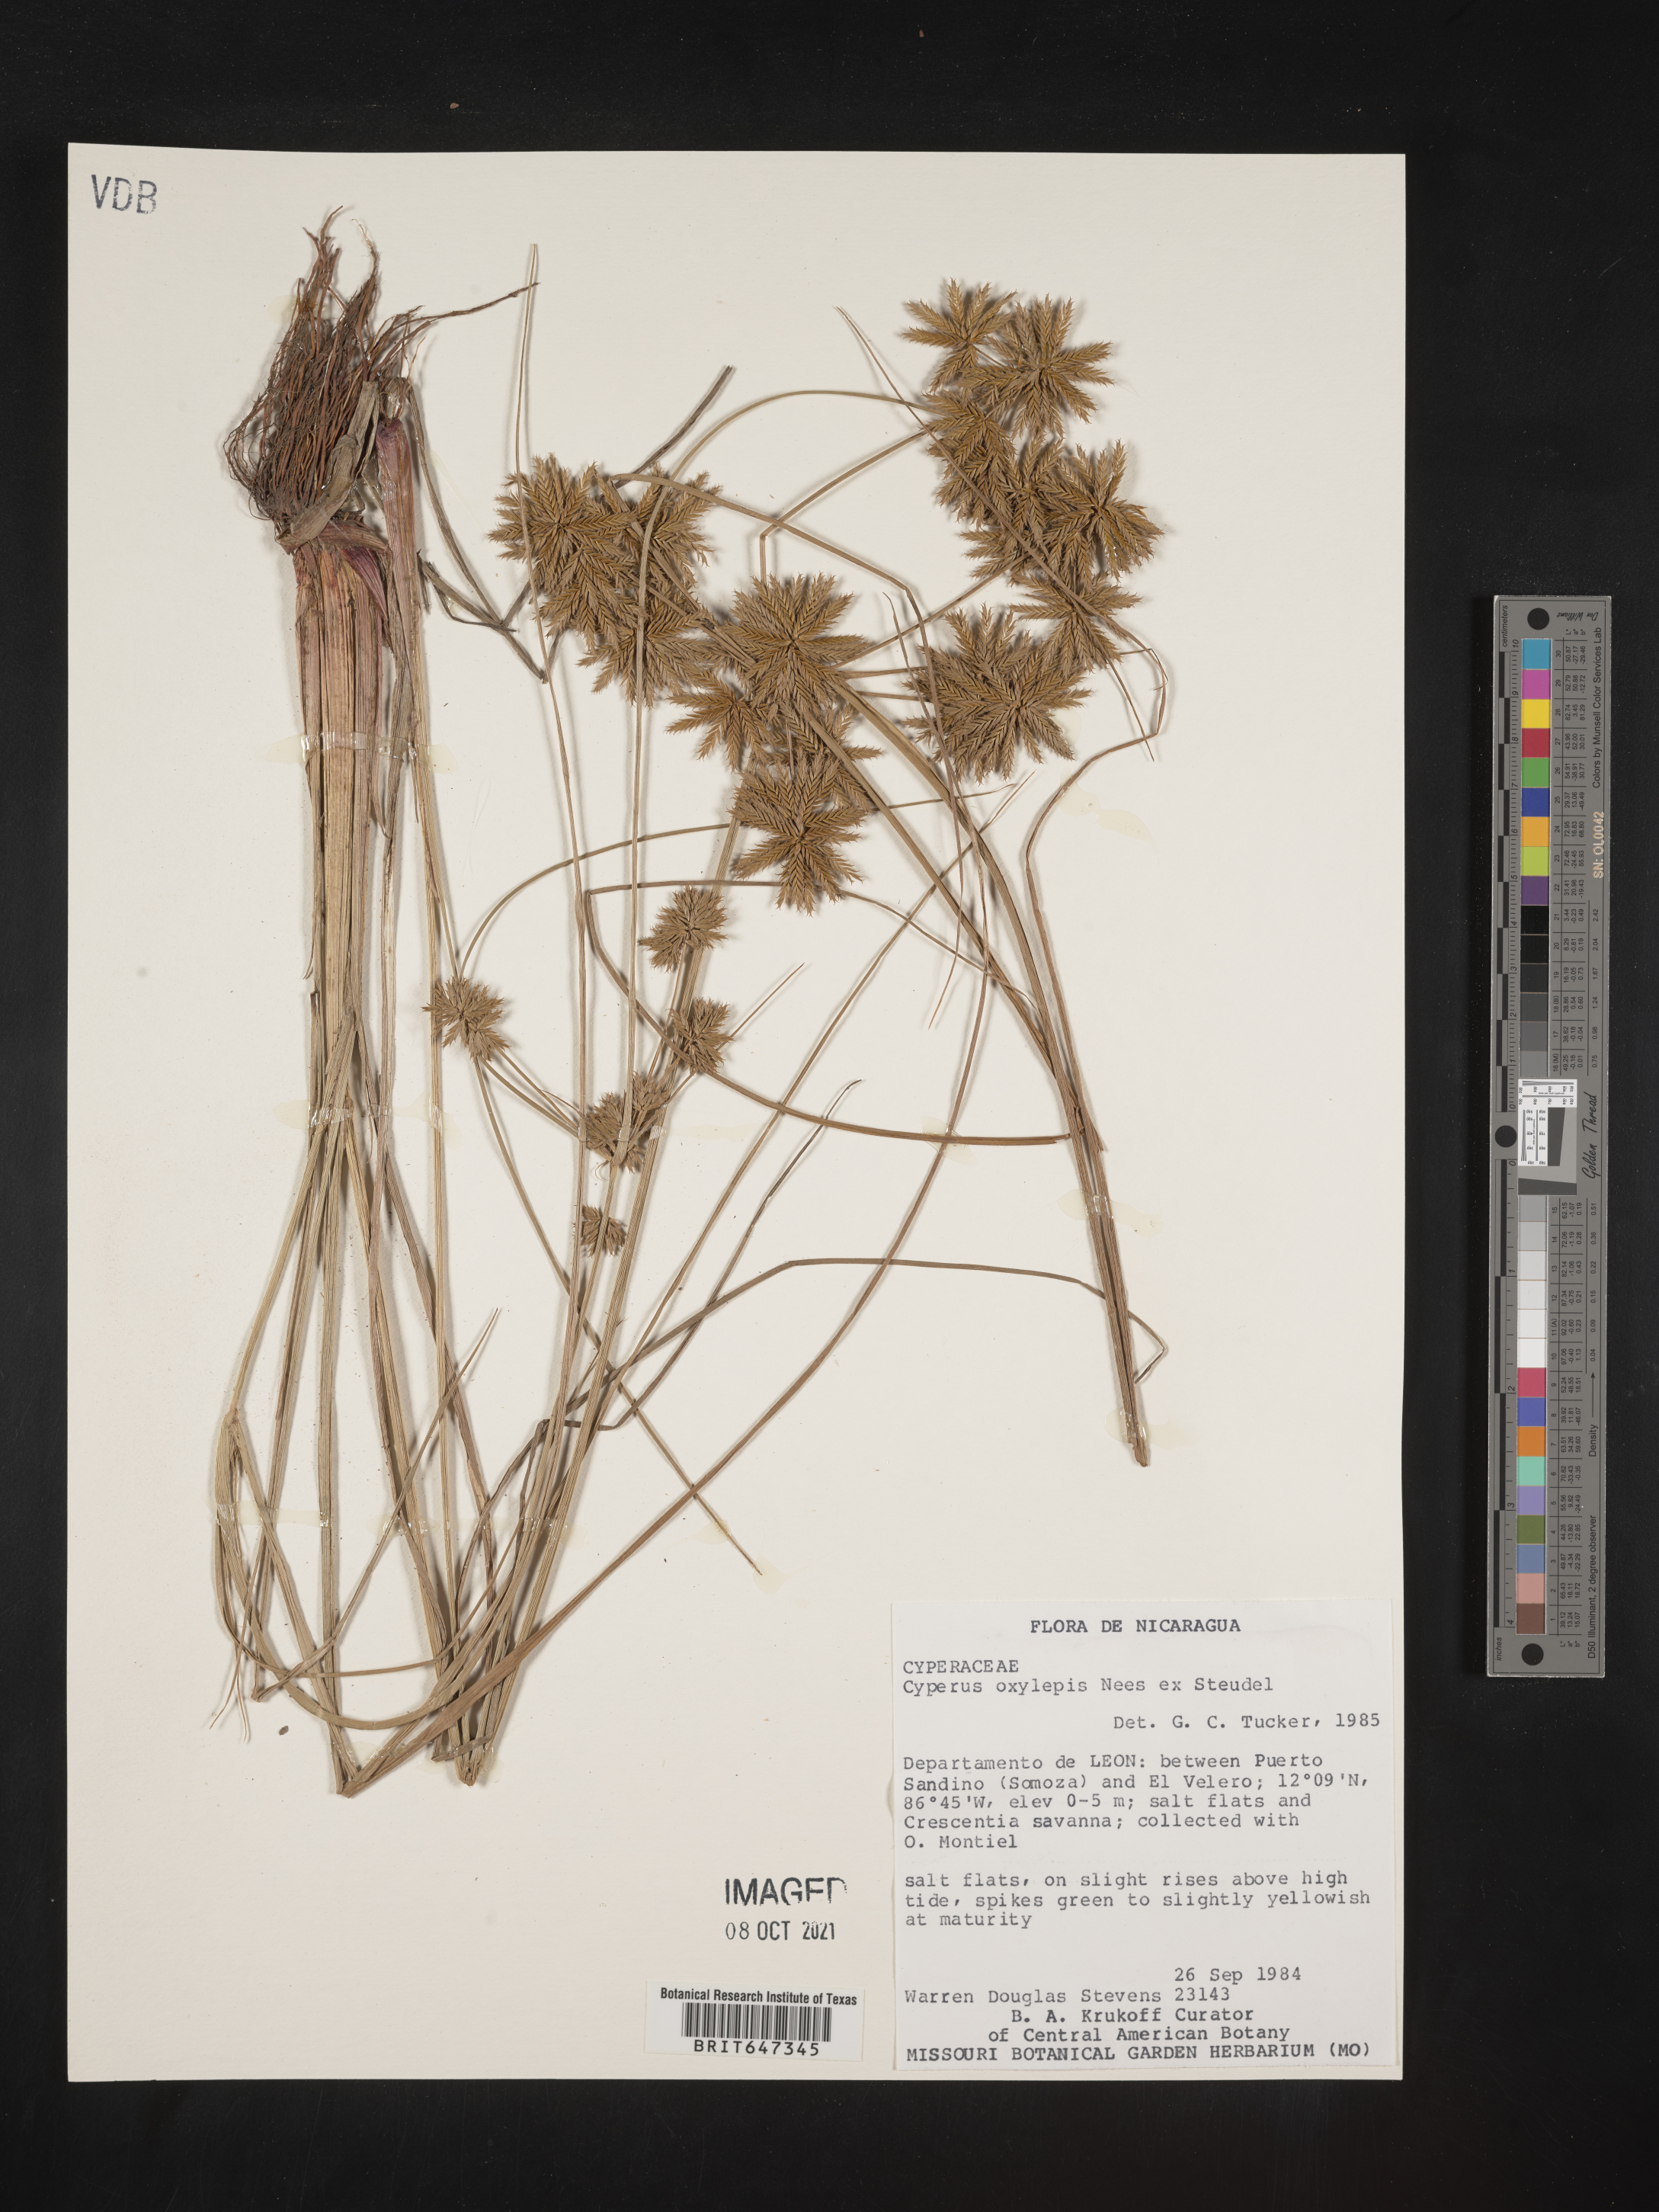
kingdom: Plantae
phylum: Tracheophyta
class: Liliopsida
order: Poales
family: Cyperaceae
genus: Cyperus
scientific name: Cyperus oxylepis
